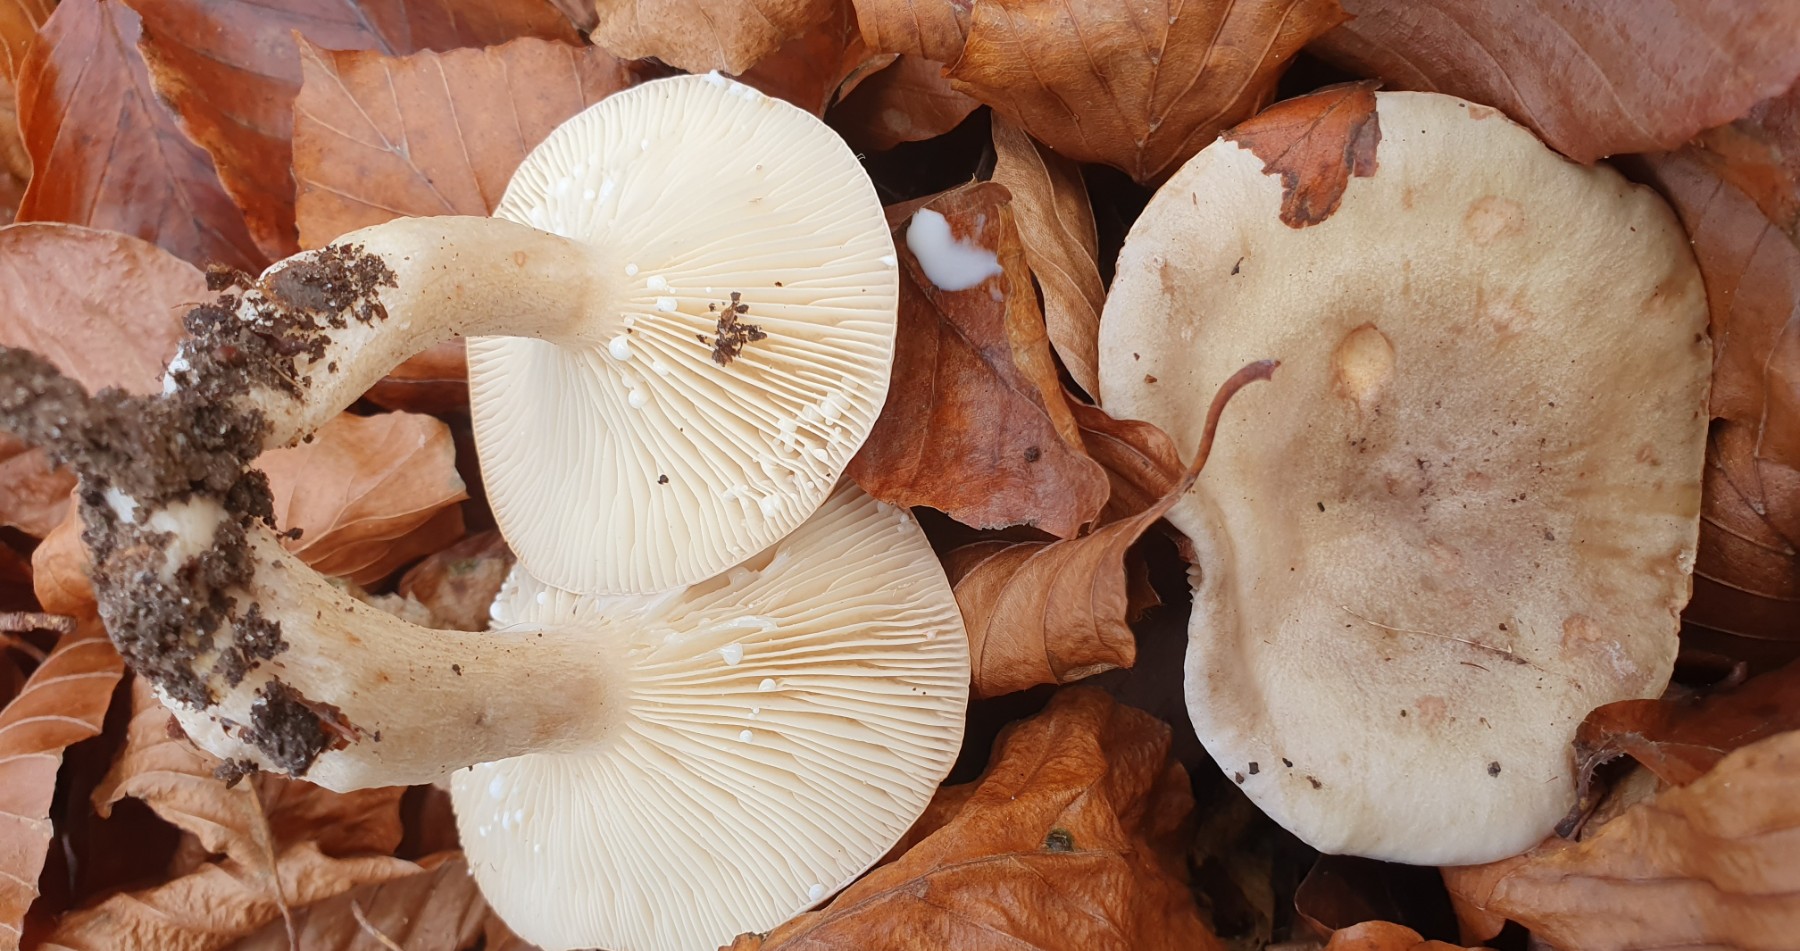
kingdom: Fungi
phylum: Basidiomycota
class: Agaricomycetes
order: Russulales
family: Russulaceae
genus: Lactarius
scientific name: Lactarius pallidus
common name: bleg mælkehat
